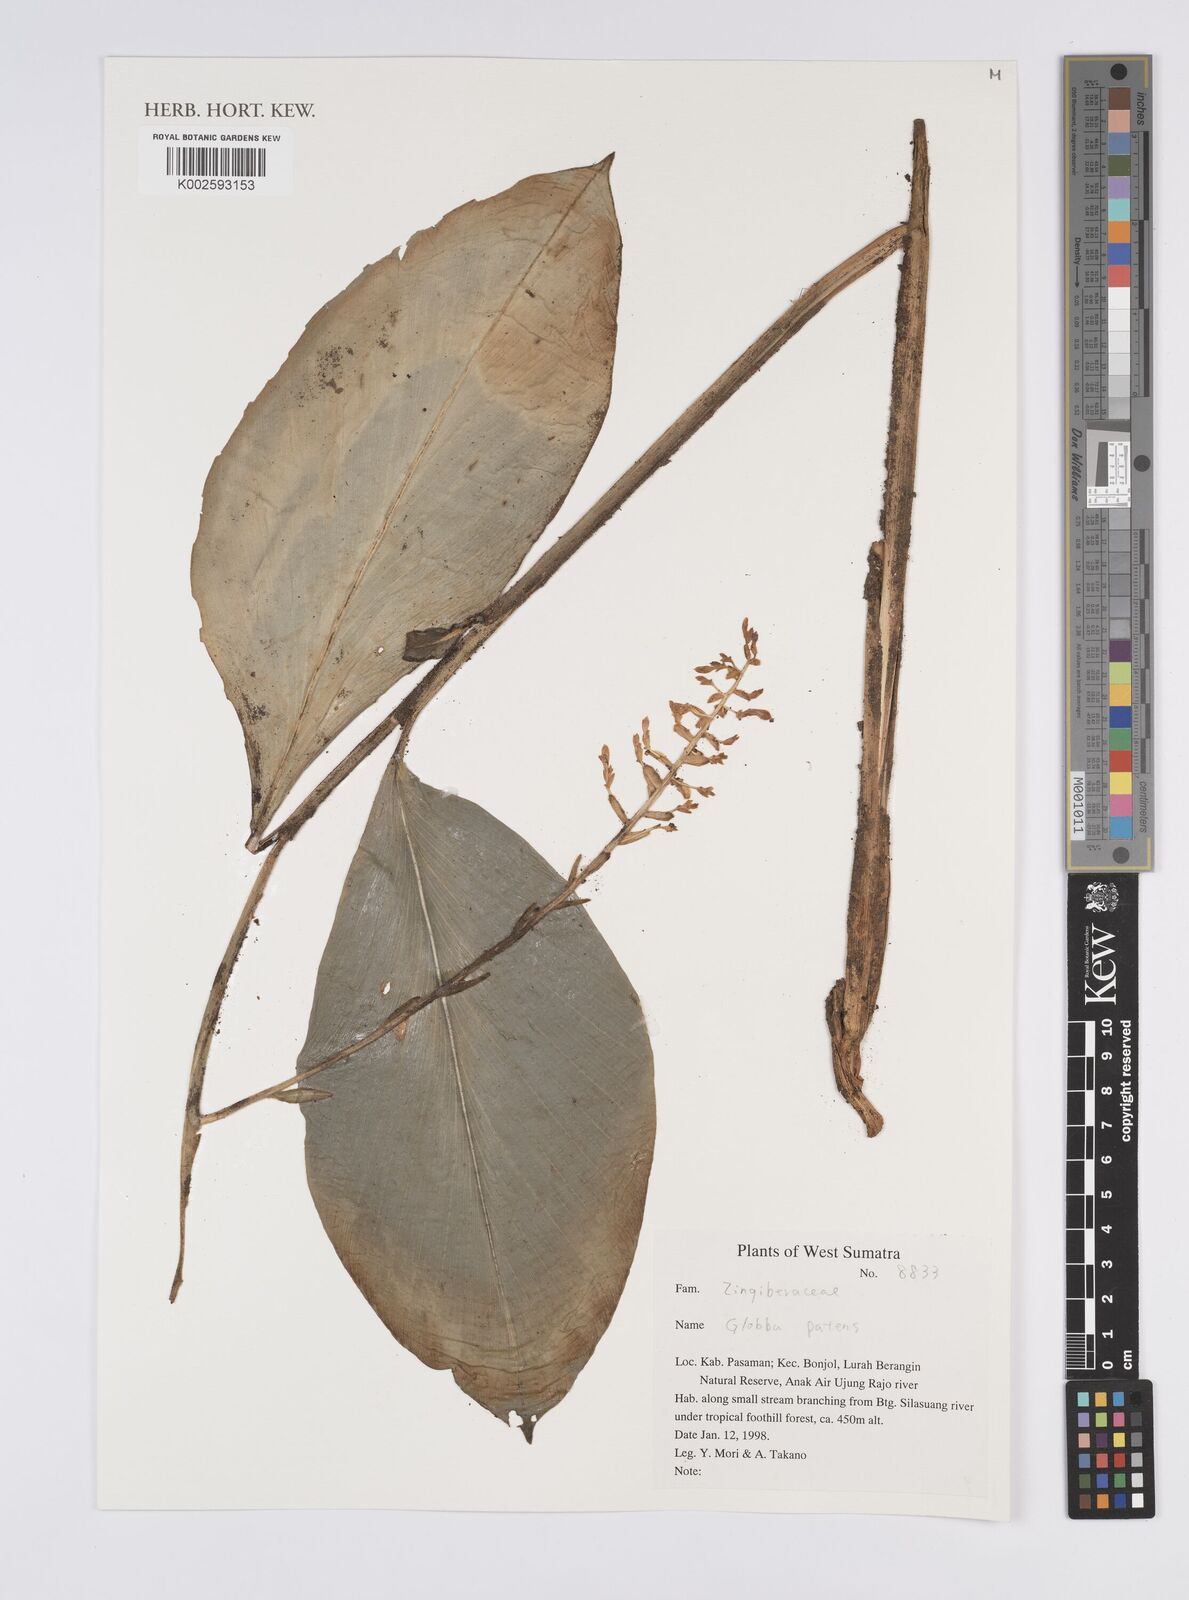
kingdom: Plantae
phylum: Tracheophyta
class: Liliopsida
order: Zingiberales
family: Zingiberaceae
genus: Globba
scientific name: Globba
